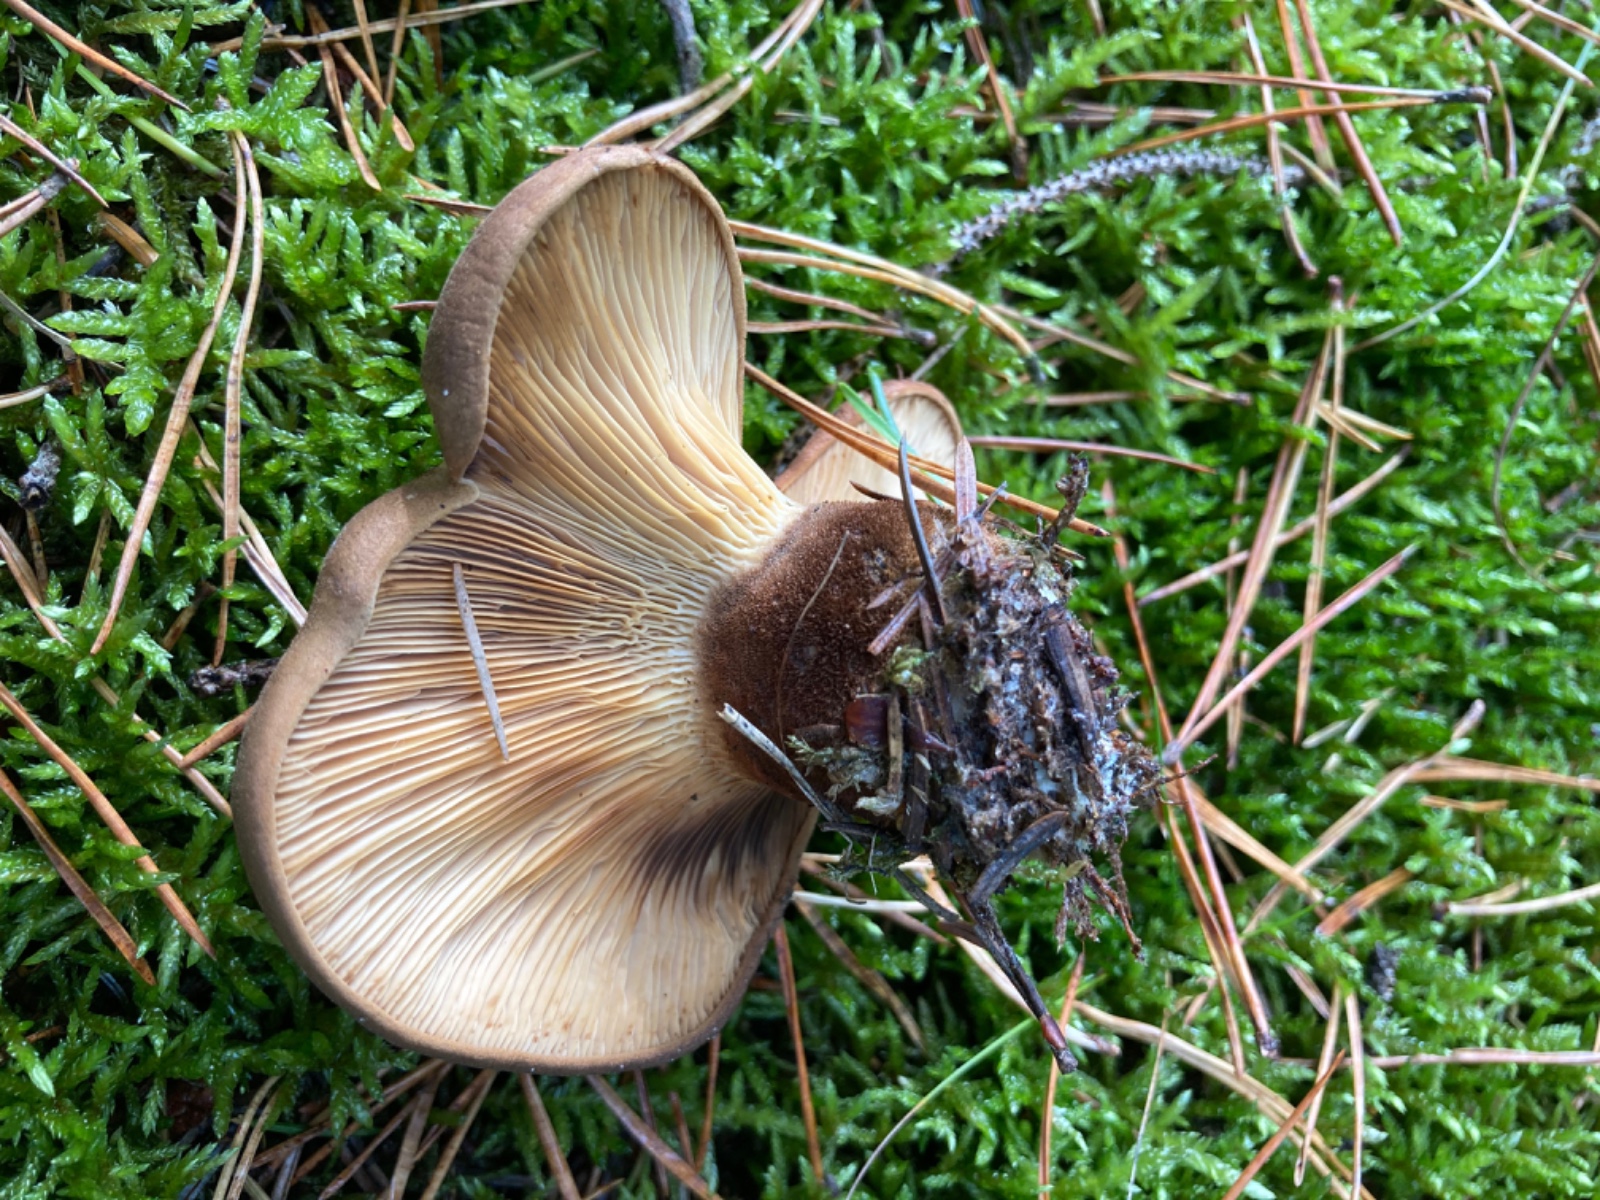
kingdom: Fungi
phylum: Basidiomycota
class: Agaricomycetes
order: Boletales
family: Tapinellaceae
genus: Tapinella
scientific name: Tapinella atrotomentosa
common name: sortfiltet viftesvamp
